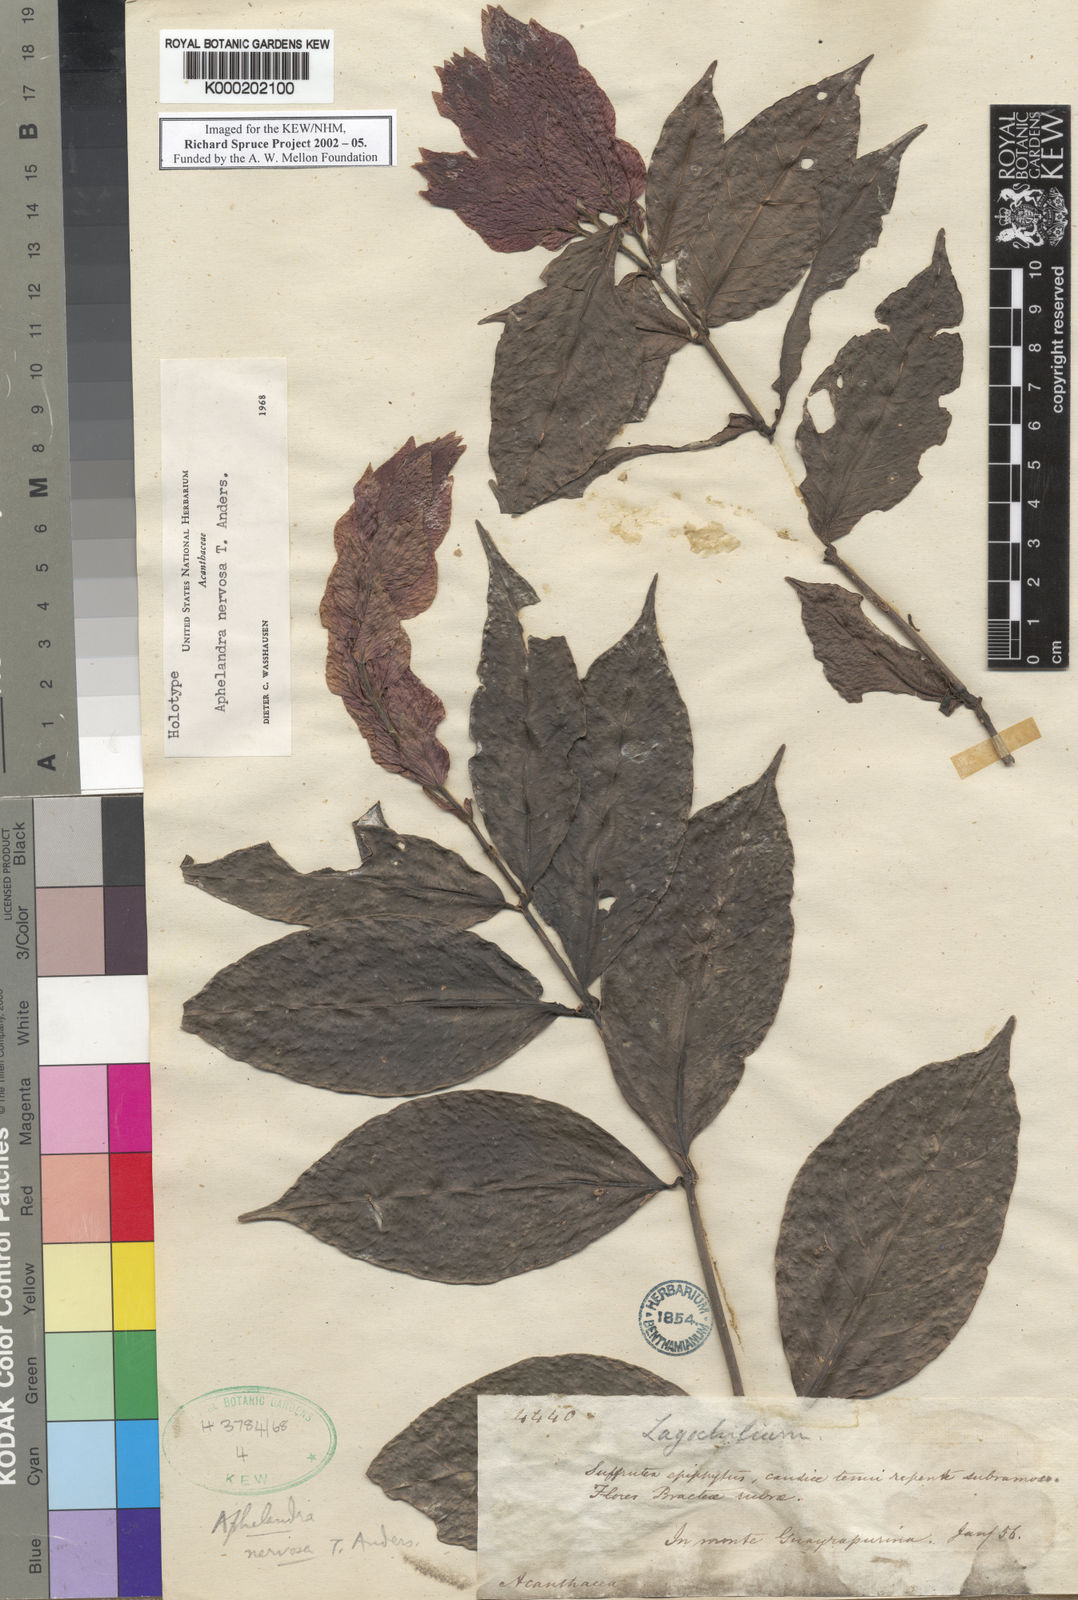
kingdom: Plantae
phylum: Tracheophyta
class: Magnoliopsida
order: Lamiales
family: Acanthaceae
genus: Justicia
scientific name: Justicia scansilis
